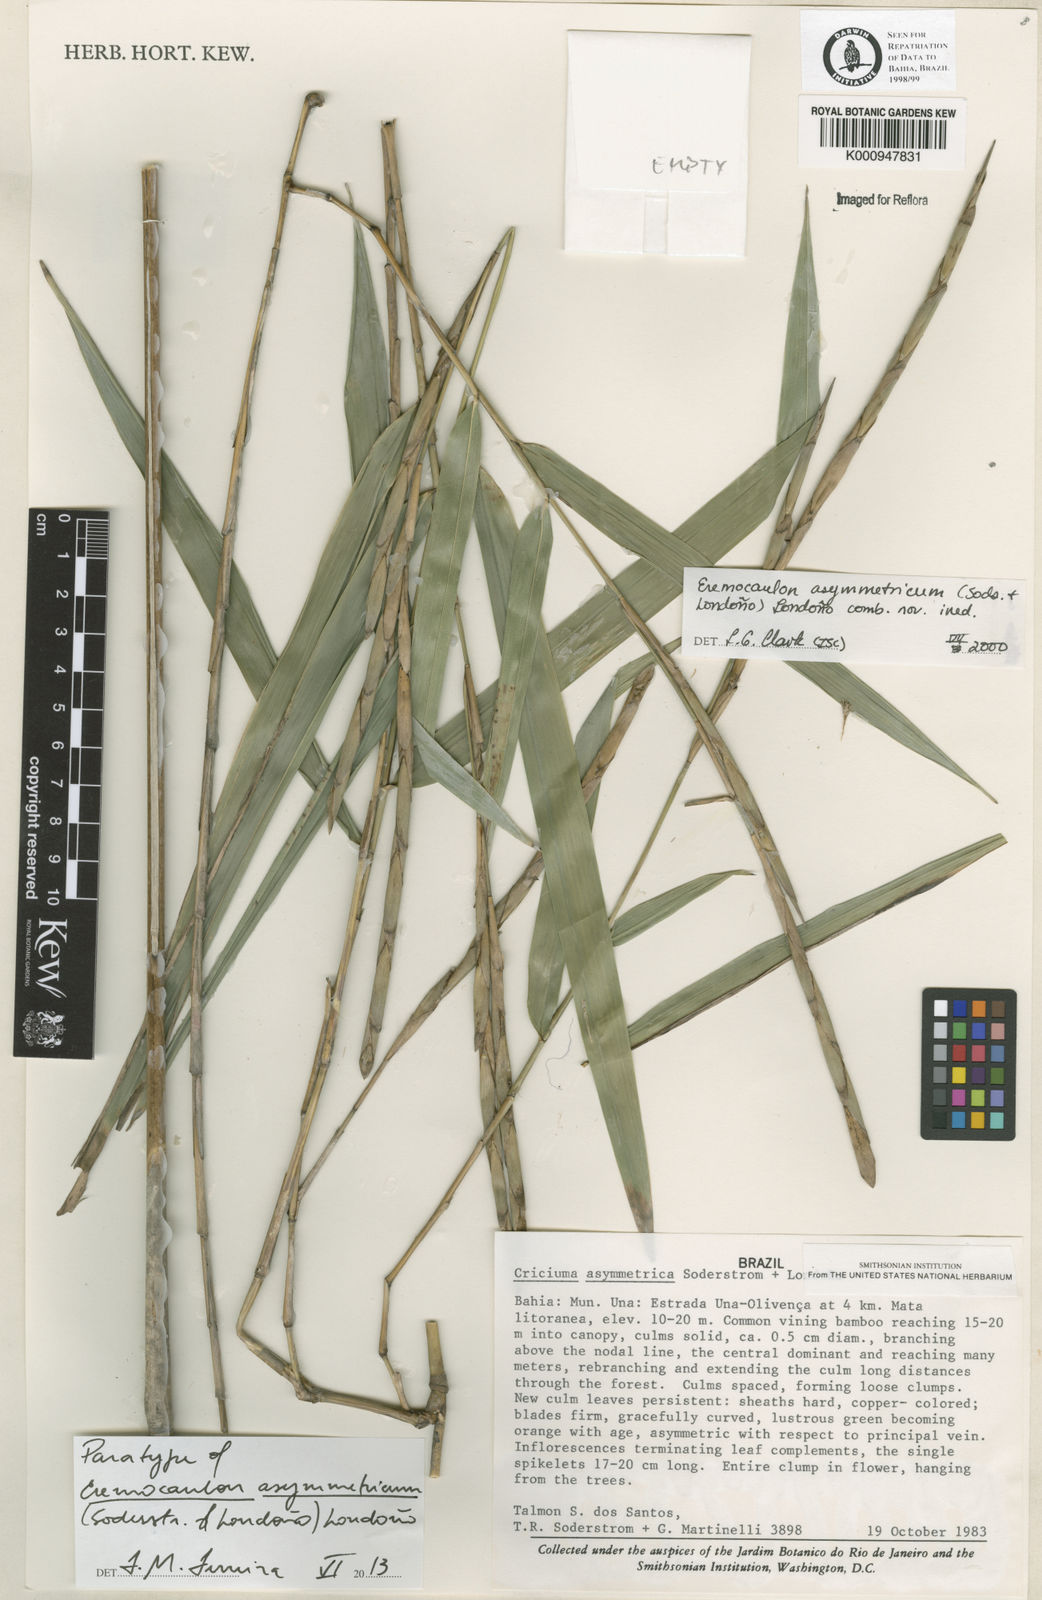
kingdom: Plantae
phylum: Tracheophyta
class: Liliopsida
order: Poales
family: Poaceae
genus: Eremocaulon
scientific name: Eremocaulon
